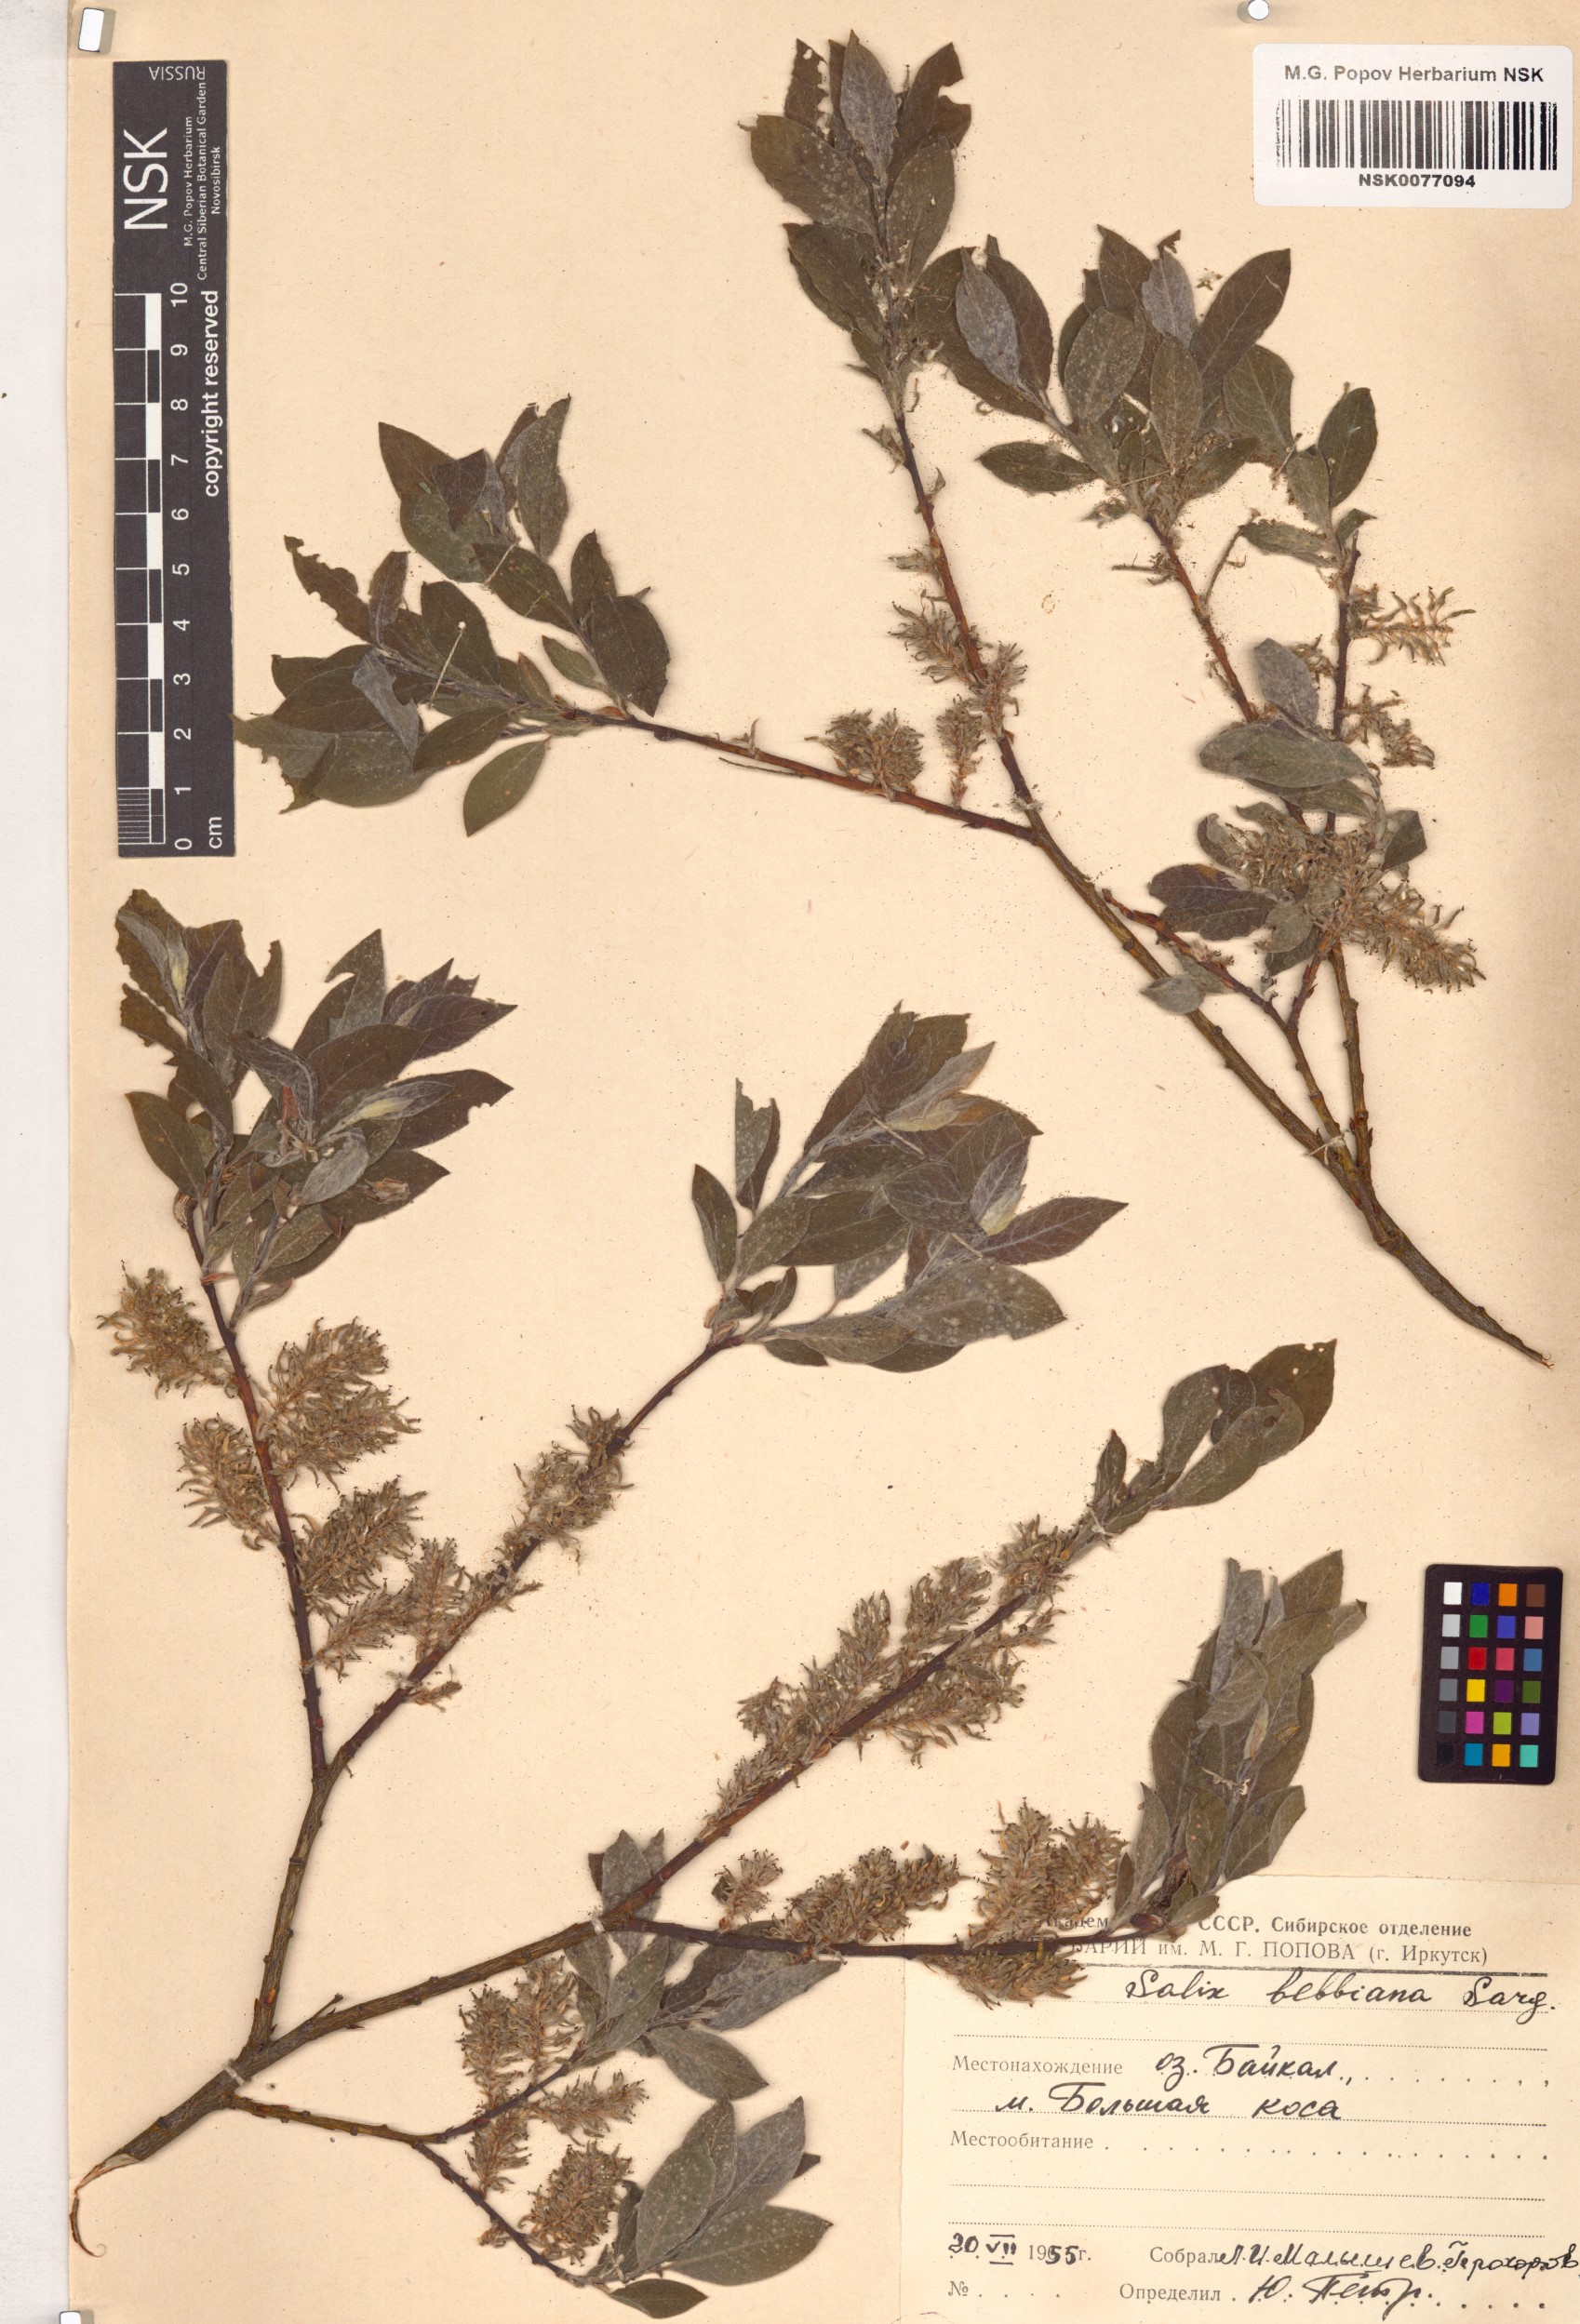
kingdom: Plantae
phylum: Tracheophyta
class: Magnoliopsida
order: Malpighiales
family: Salicaceae
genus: Salix
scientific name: Salix bebbiana
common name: Bebb's willow
